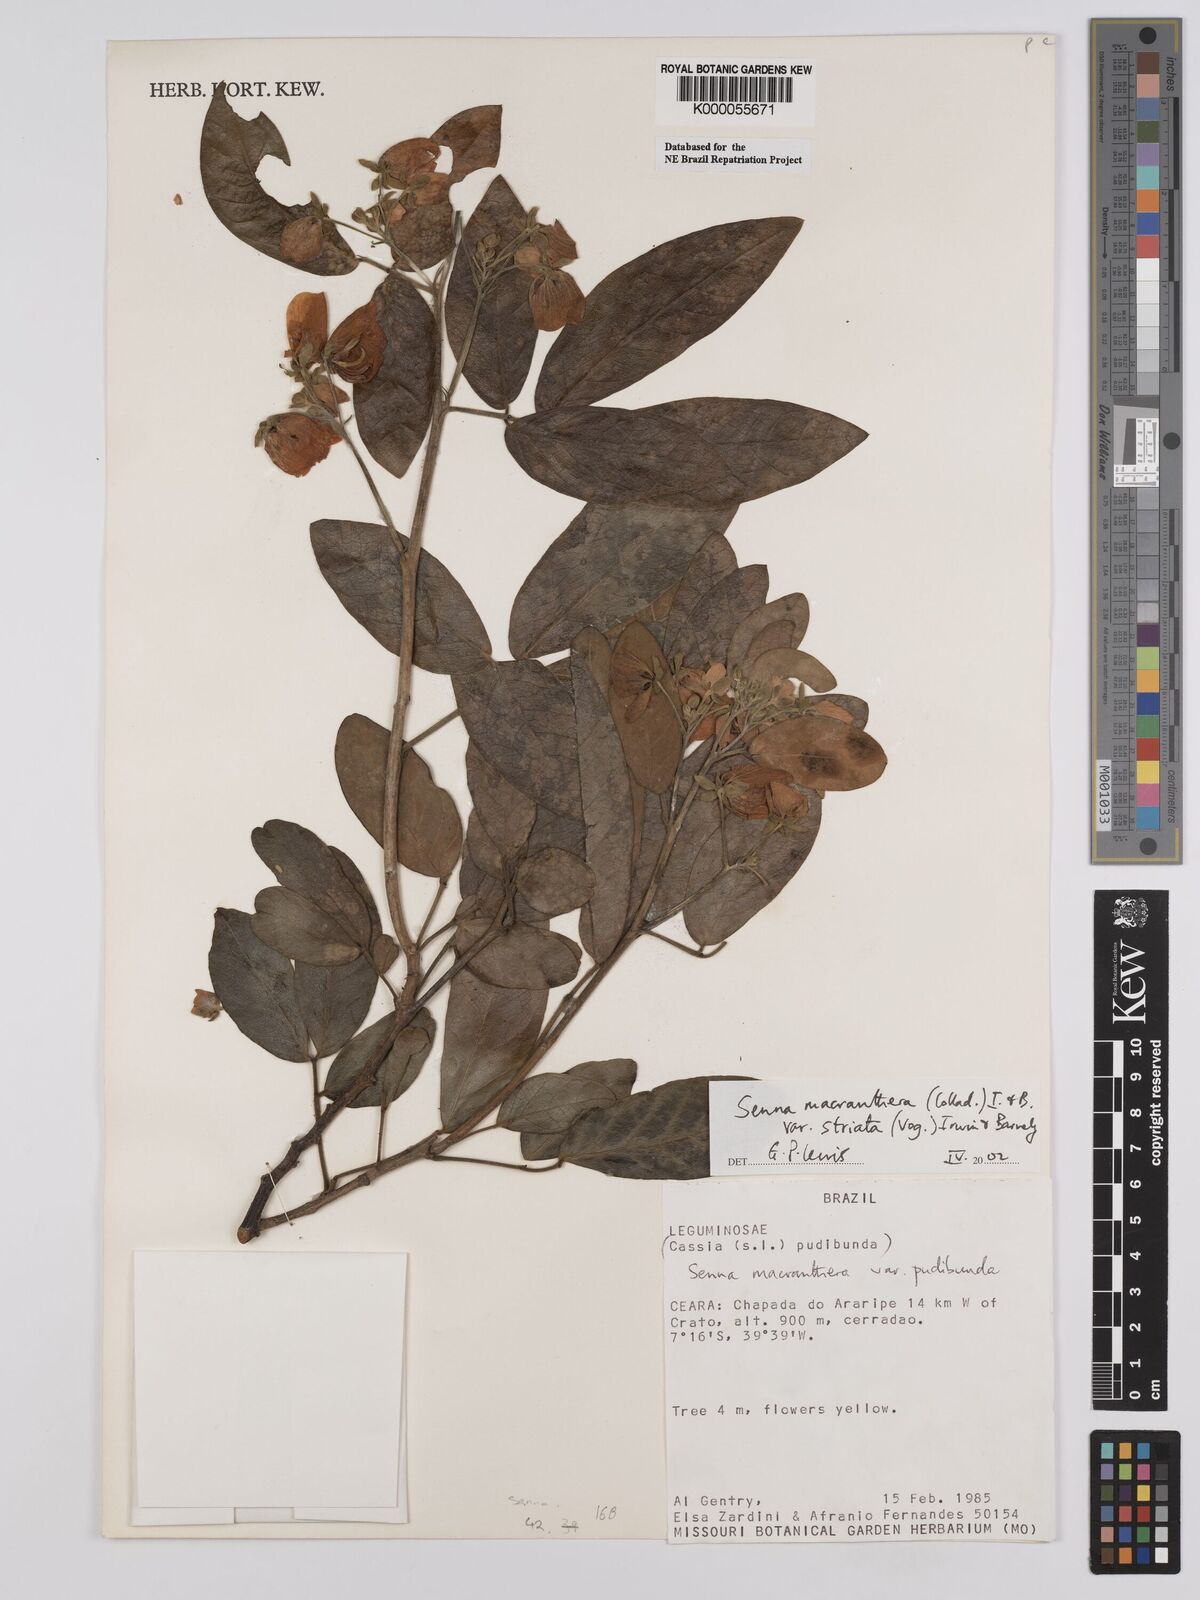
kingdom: Plantae
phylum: Tracheophyta
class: Magnoliopsida
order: Fabales
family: Fabaceae
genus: Senna
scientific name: Senna macranthera
